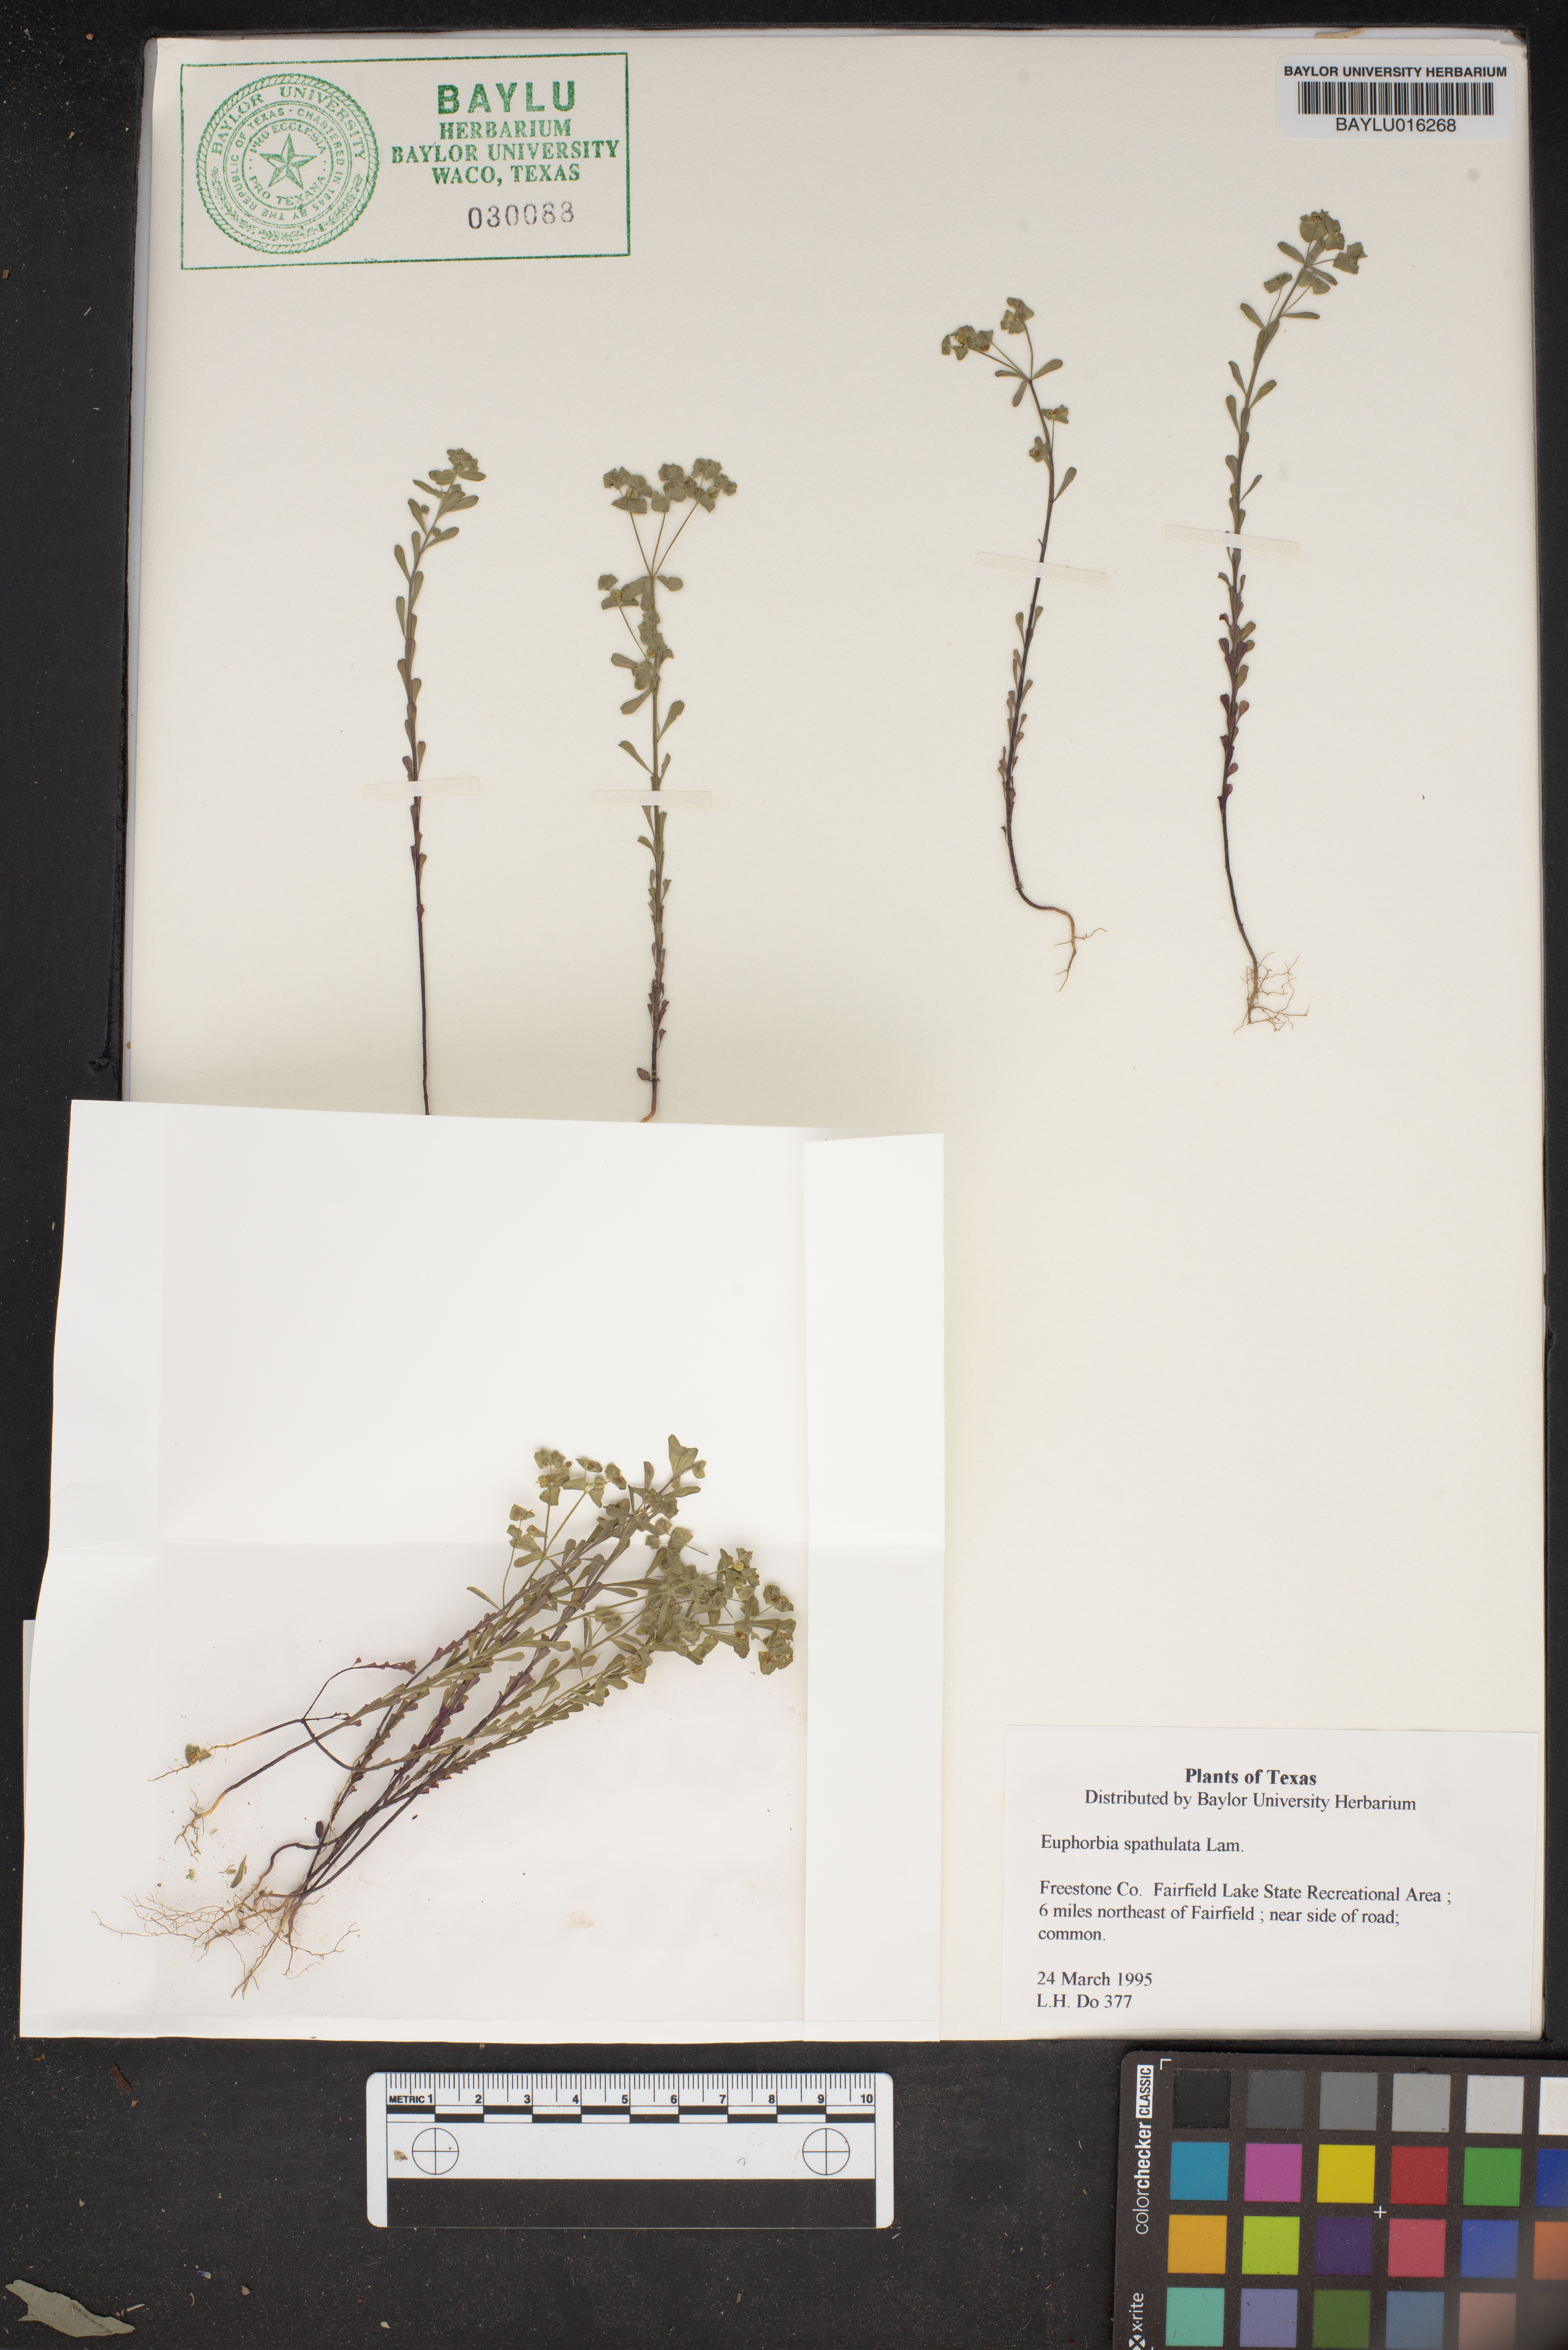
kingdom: Plantae
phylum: Tracheophyta
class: Magnoliopsida
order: Malpighiales
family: Euphorbiaceae
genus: Euphorbia
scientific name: Euphorbia spathulata
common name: Blunt spurge
